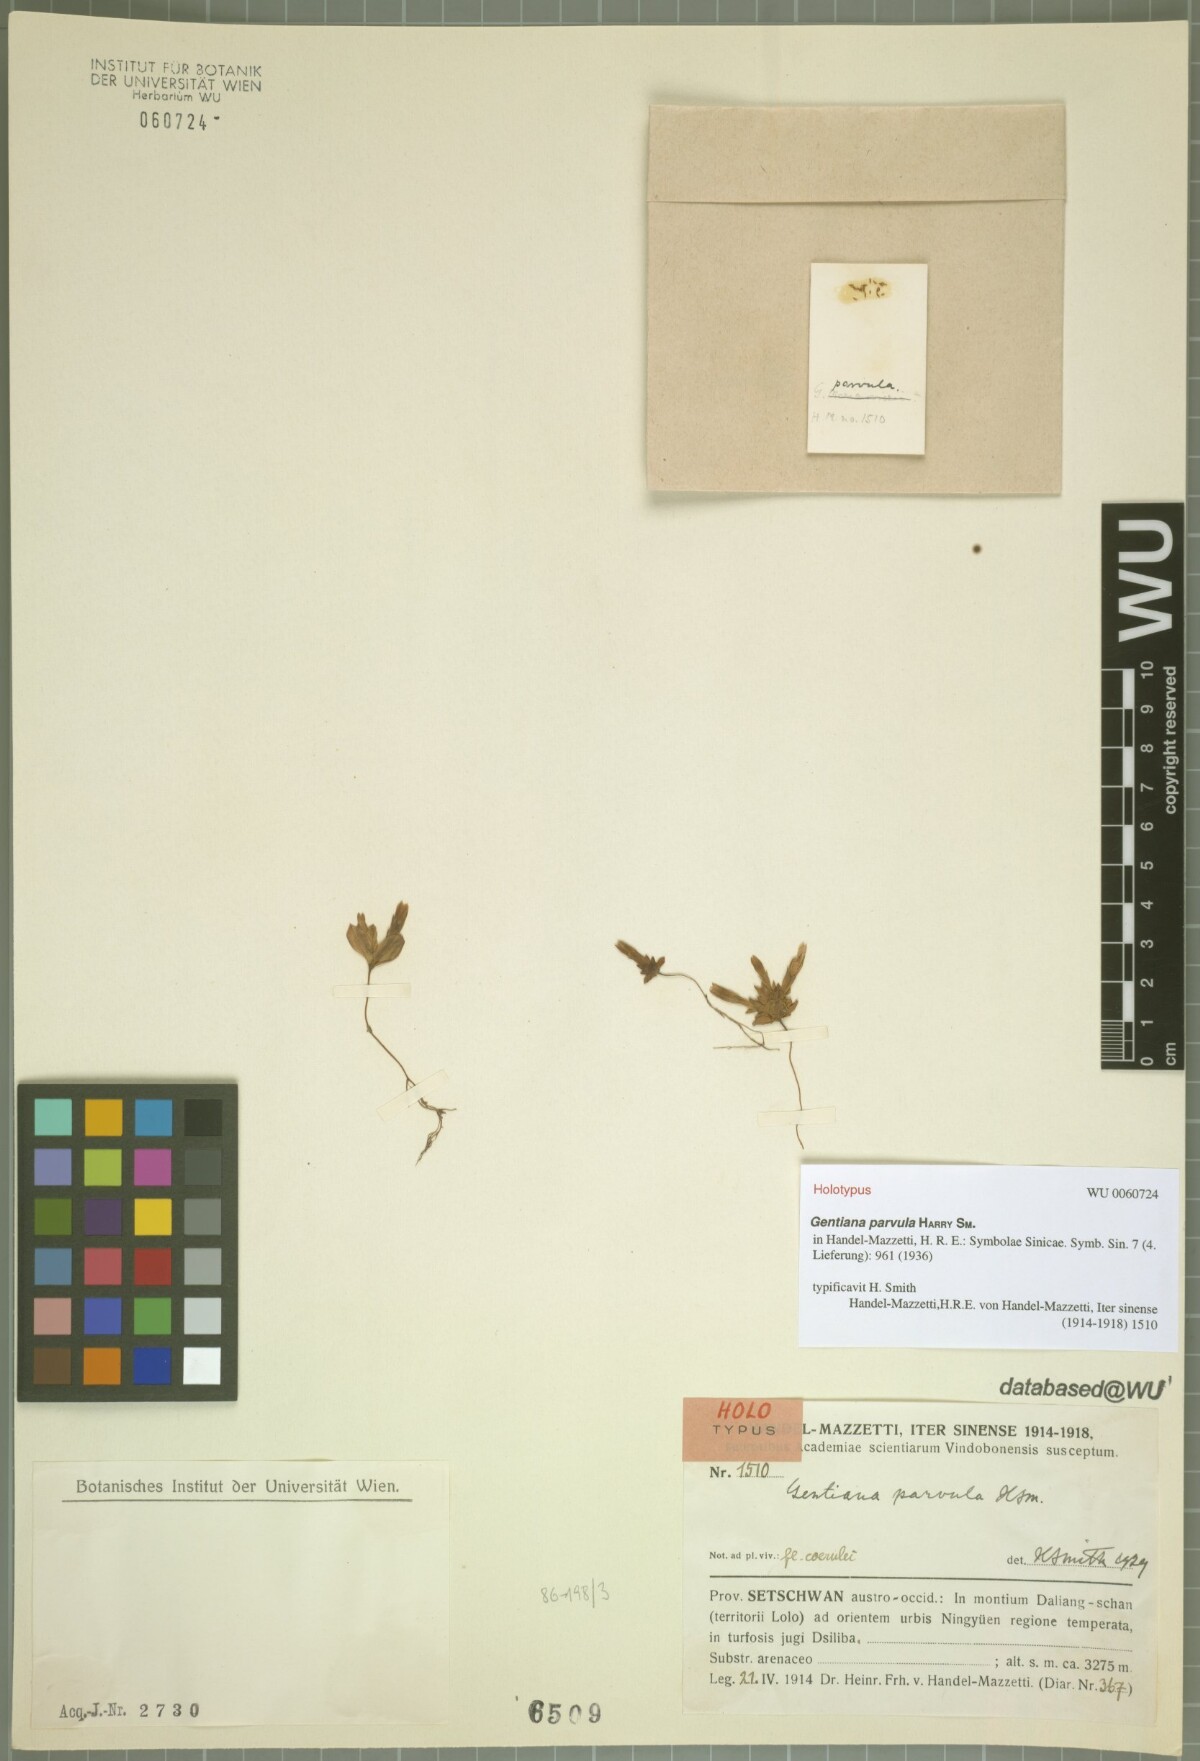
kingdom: Plantae
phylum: Tracheophyta
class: Magnoliopsida
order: Gentianales
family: Gentianaceae
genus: Gentiana
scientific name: Gentiana parvula
